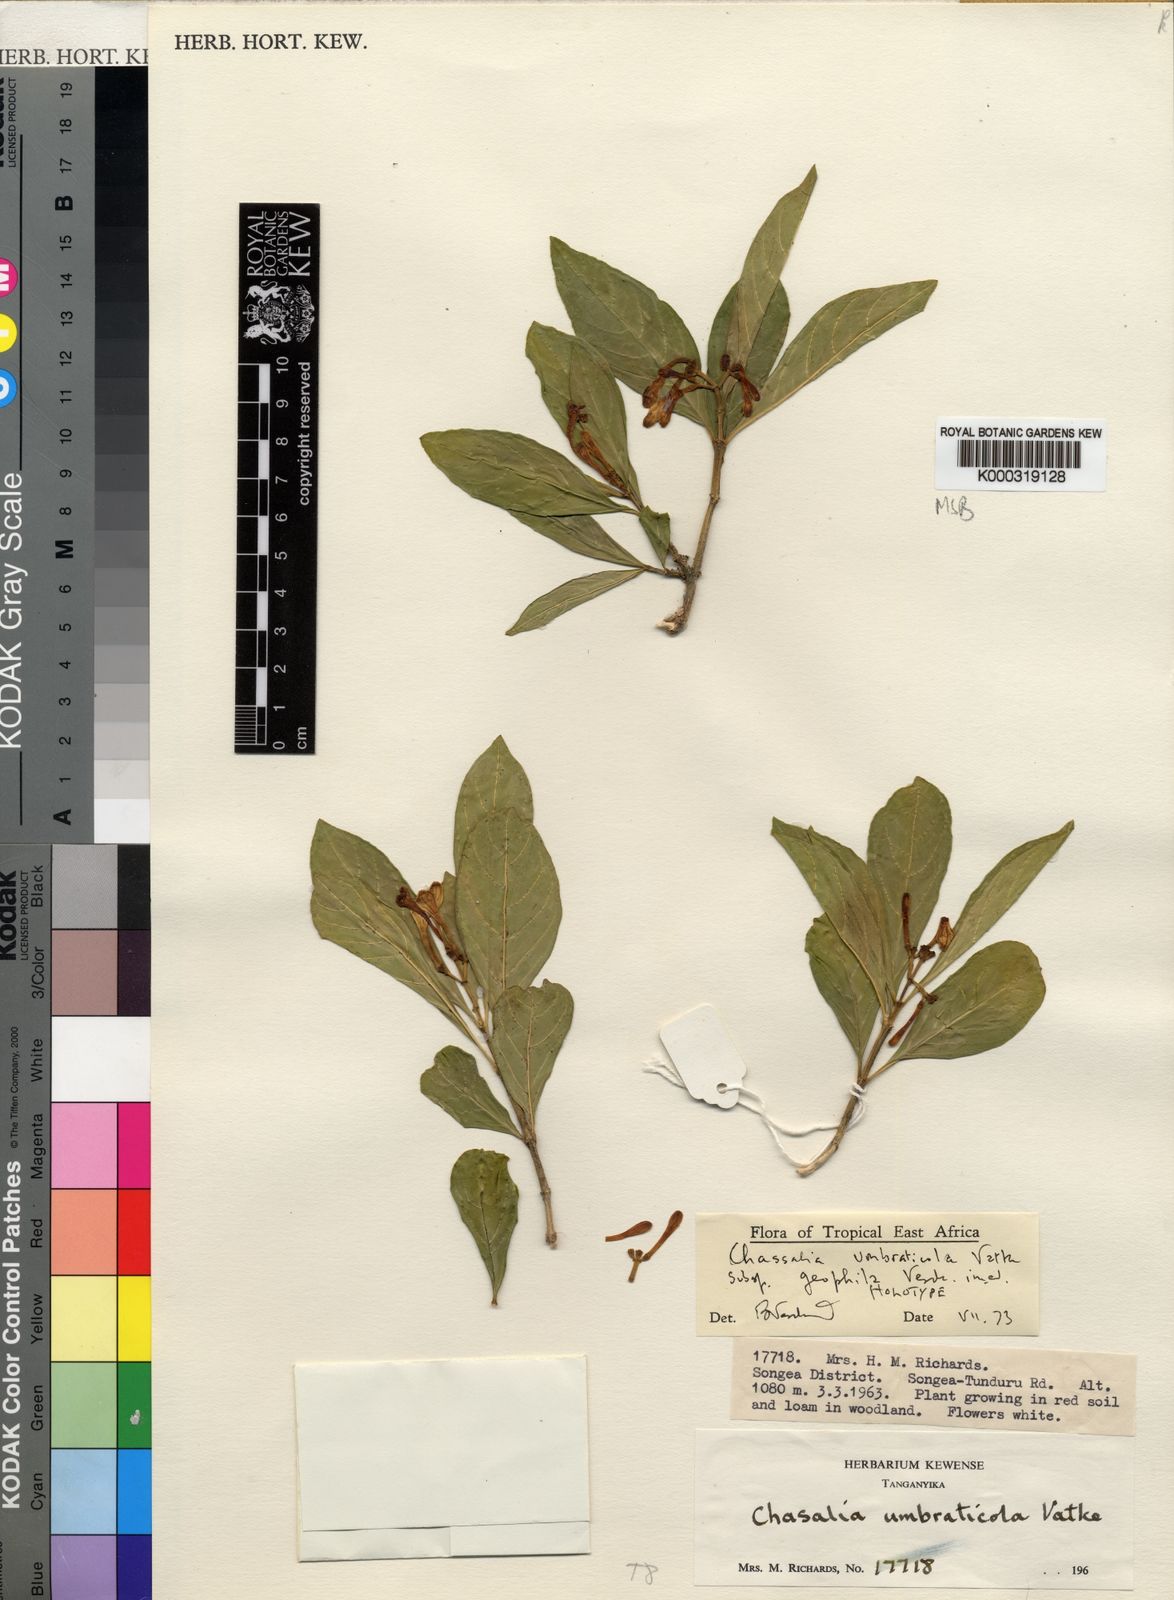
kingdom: Plantae
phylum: Tracheophyta
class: Magnoliopsida
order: Gentianales
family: Rubiaceae
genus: Chassalia
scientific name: Chassalia umbraticola
